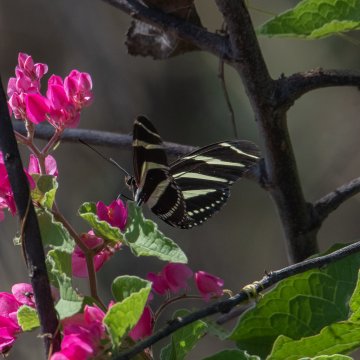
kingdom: Animalia
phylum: Arthropoda
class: Insecta
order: Lepidoptera
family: Nymphalidae
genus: Heliconius
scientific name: Heliconius charithonia
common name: Zebra Longwing
